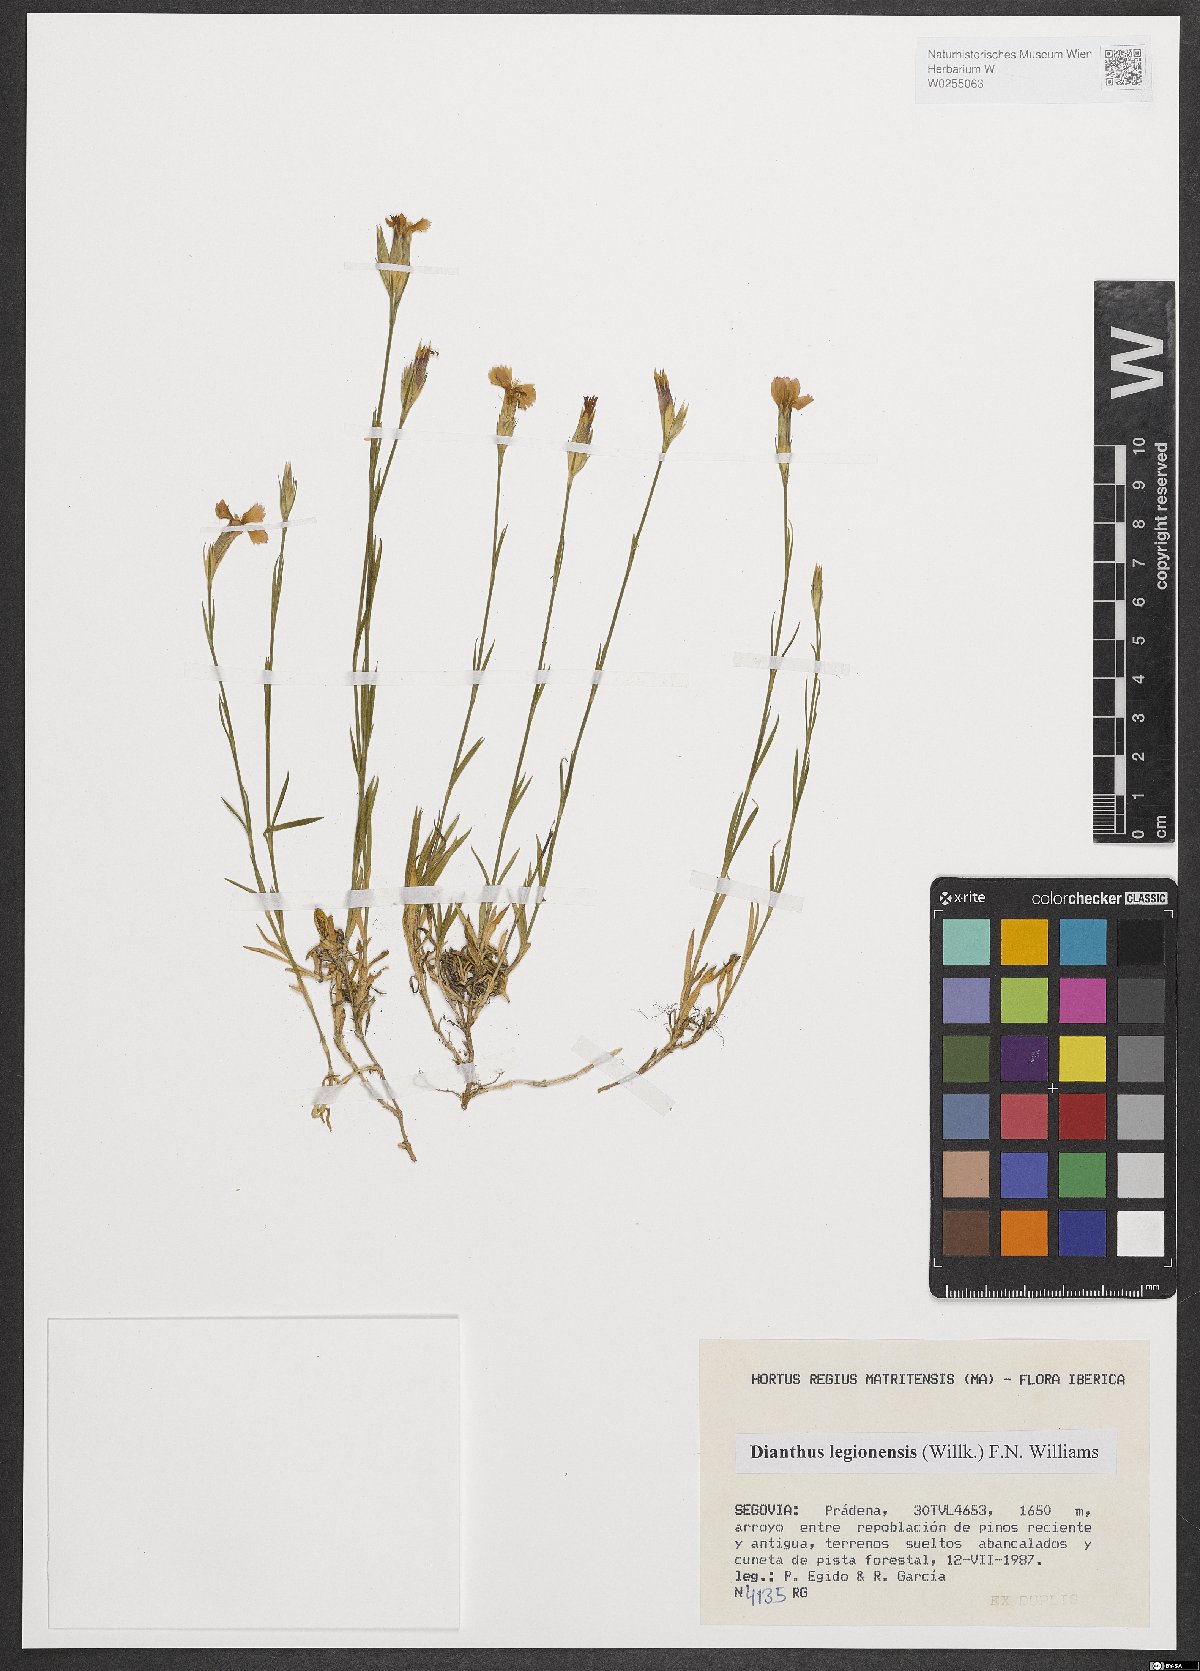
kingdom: Plantae
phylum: Tracheophyta
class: Magnoliopsida
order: Caryophyllales
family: Caryophyllaceae
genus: Dianthus
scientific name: Dianthus legionensis
